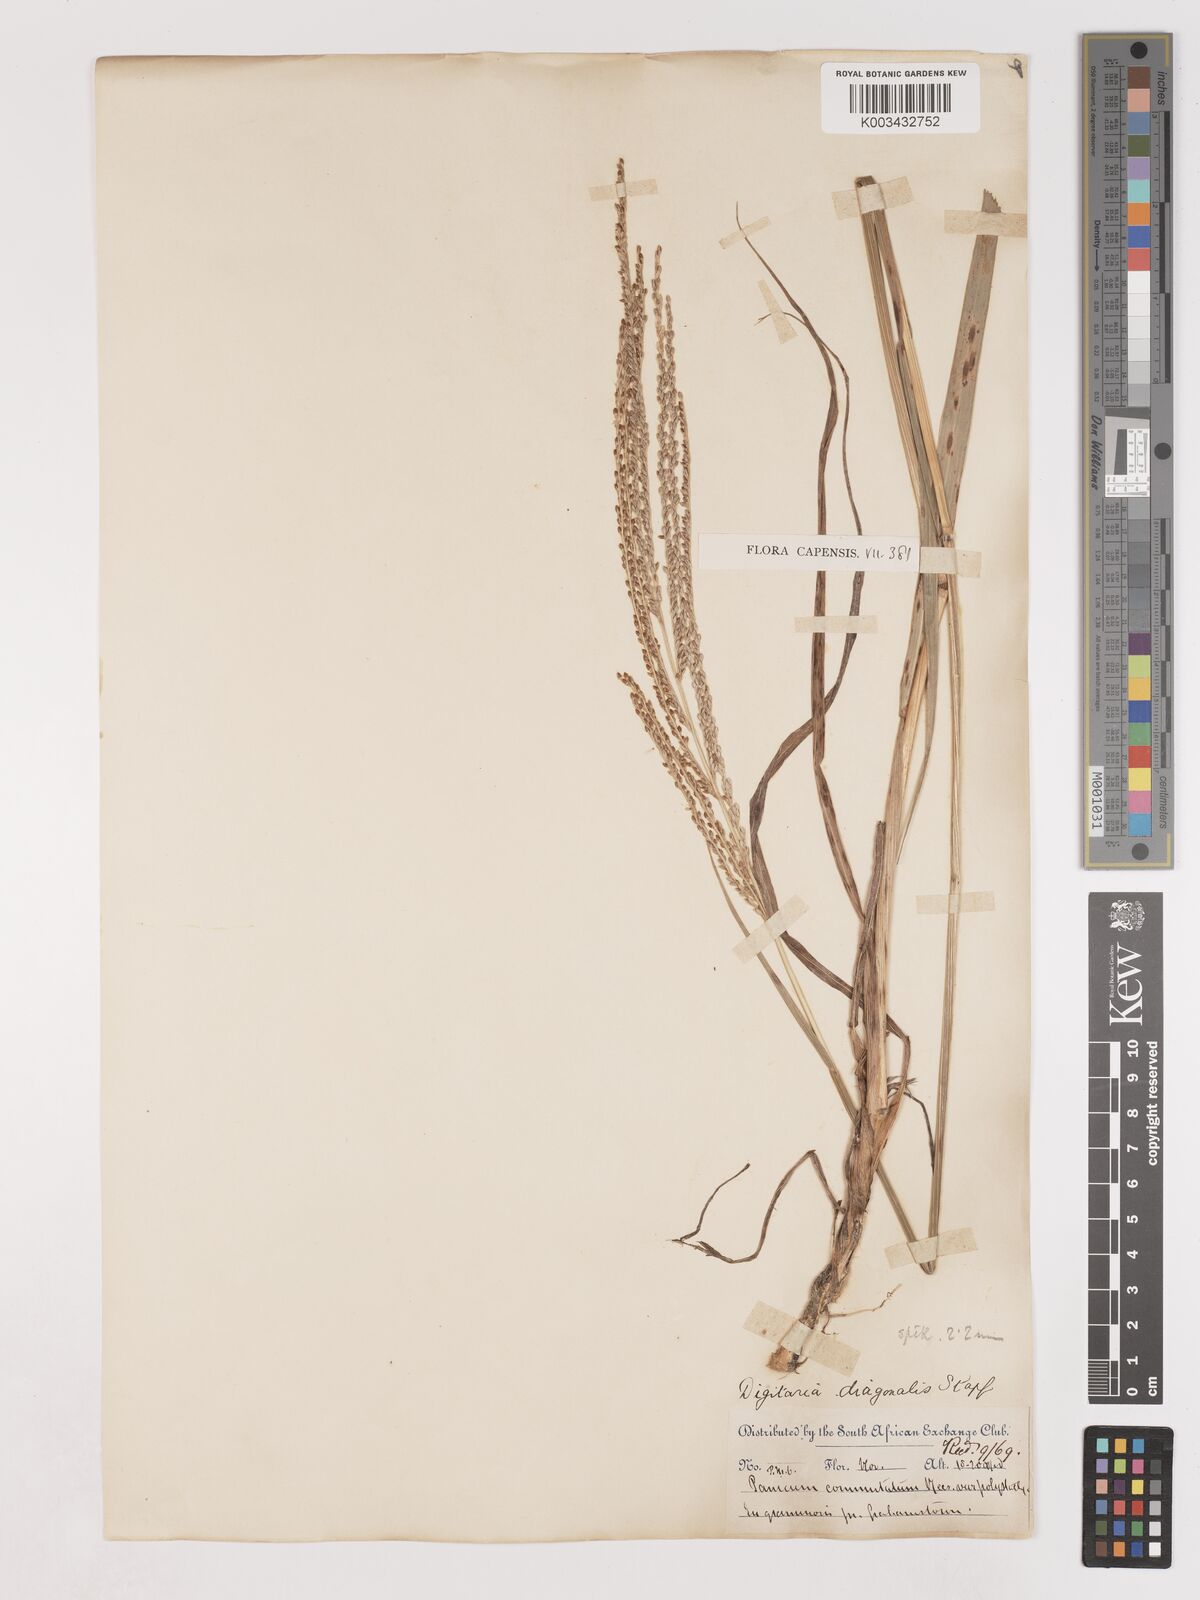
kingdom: Plantae
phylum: Tracheophyta
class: Liliopsida
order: Poales
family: Poaceae
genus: Digitaria
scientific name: Digitaria diagonalis
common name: Brown-seed finger grass
